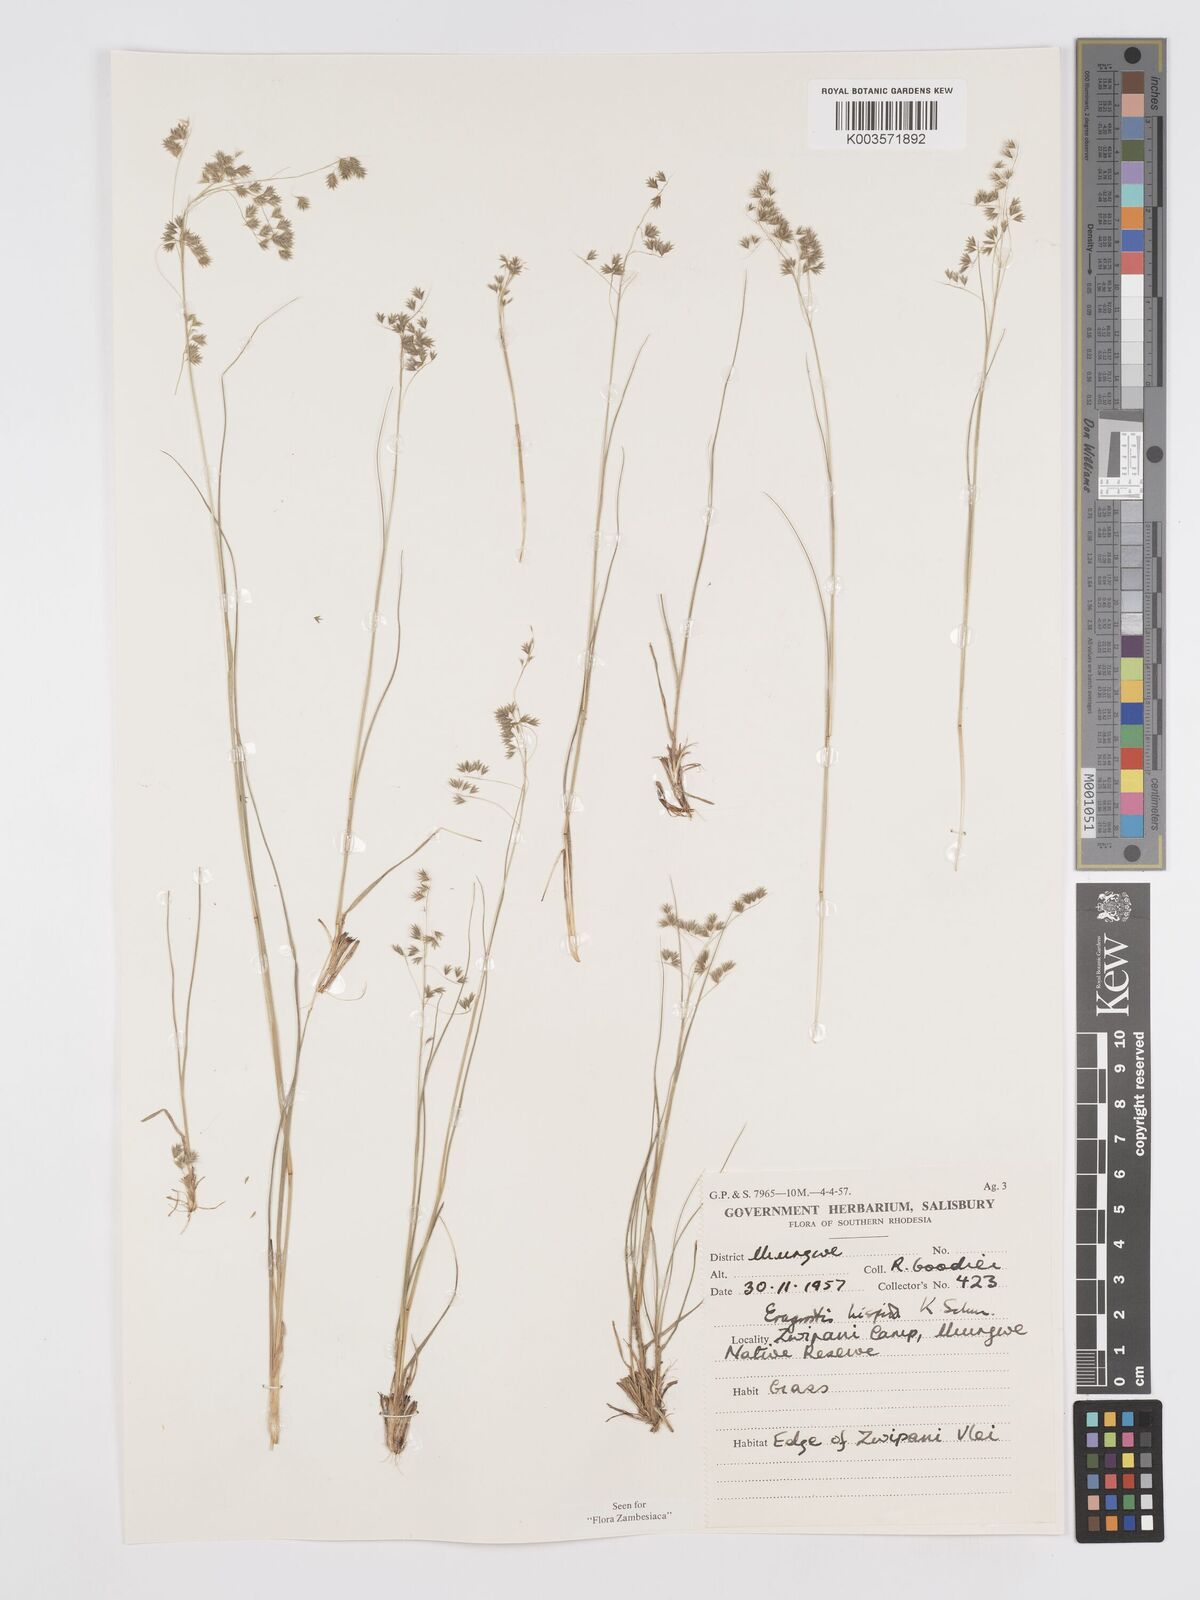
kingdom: Plantae
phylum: Tracheophyta
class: Liliopsida
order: Poales
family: Poaceae
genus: Eragrostis
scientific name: Eragrostis hispida
